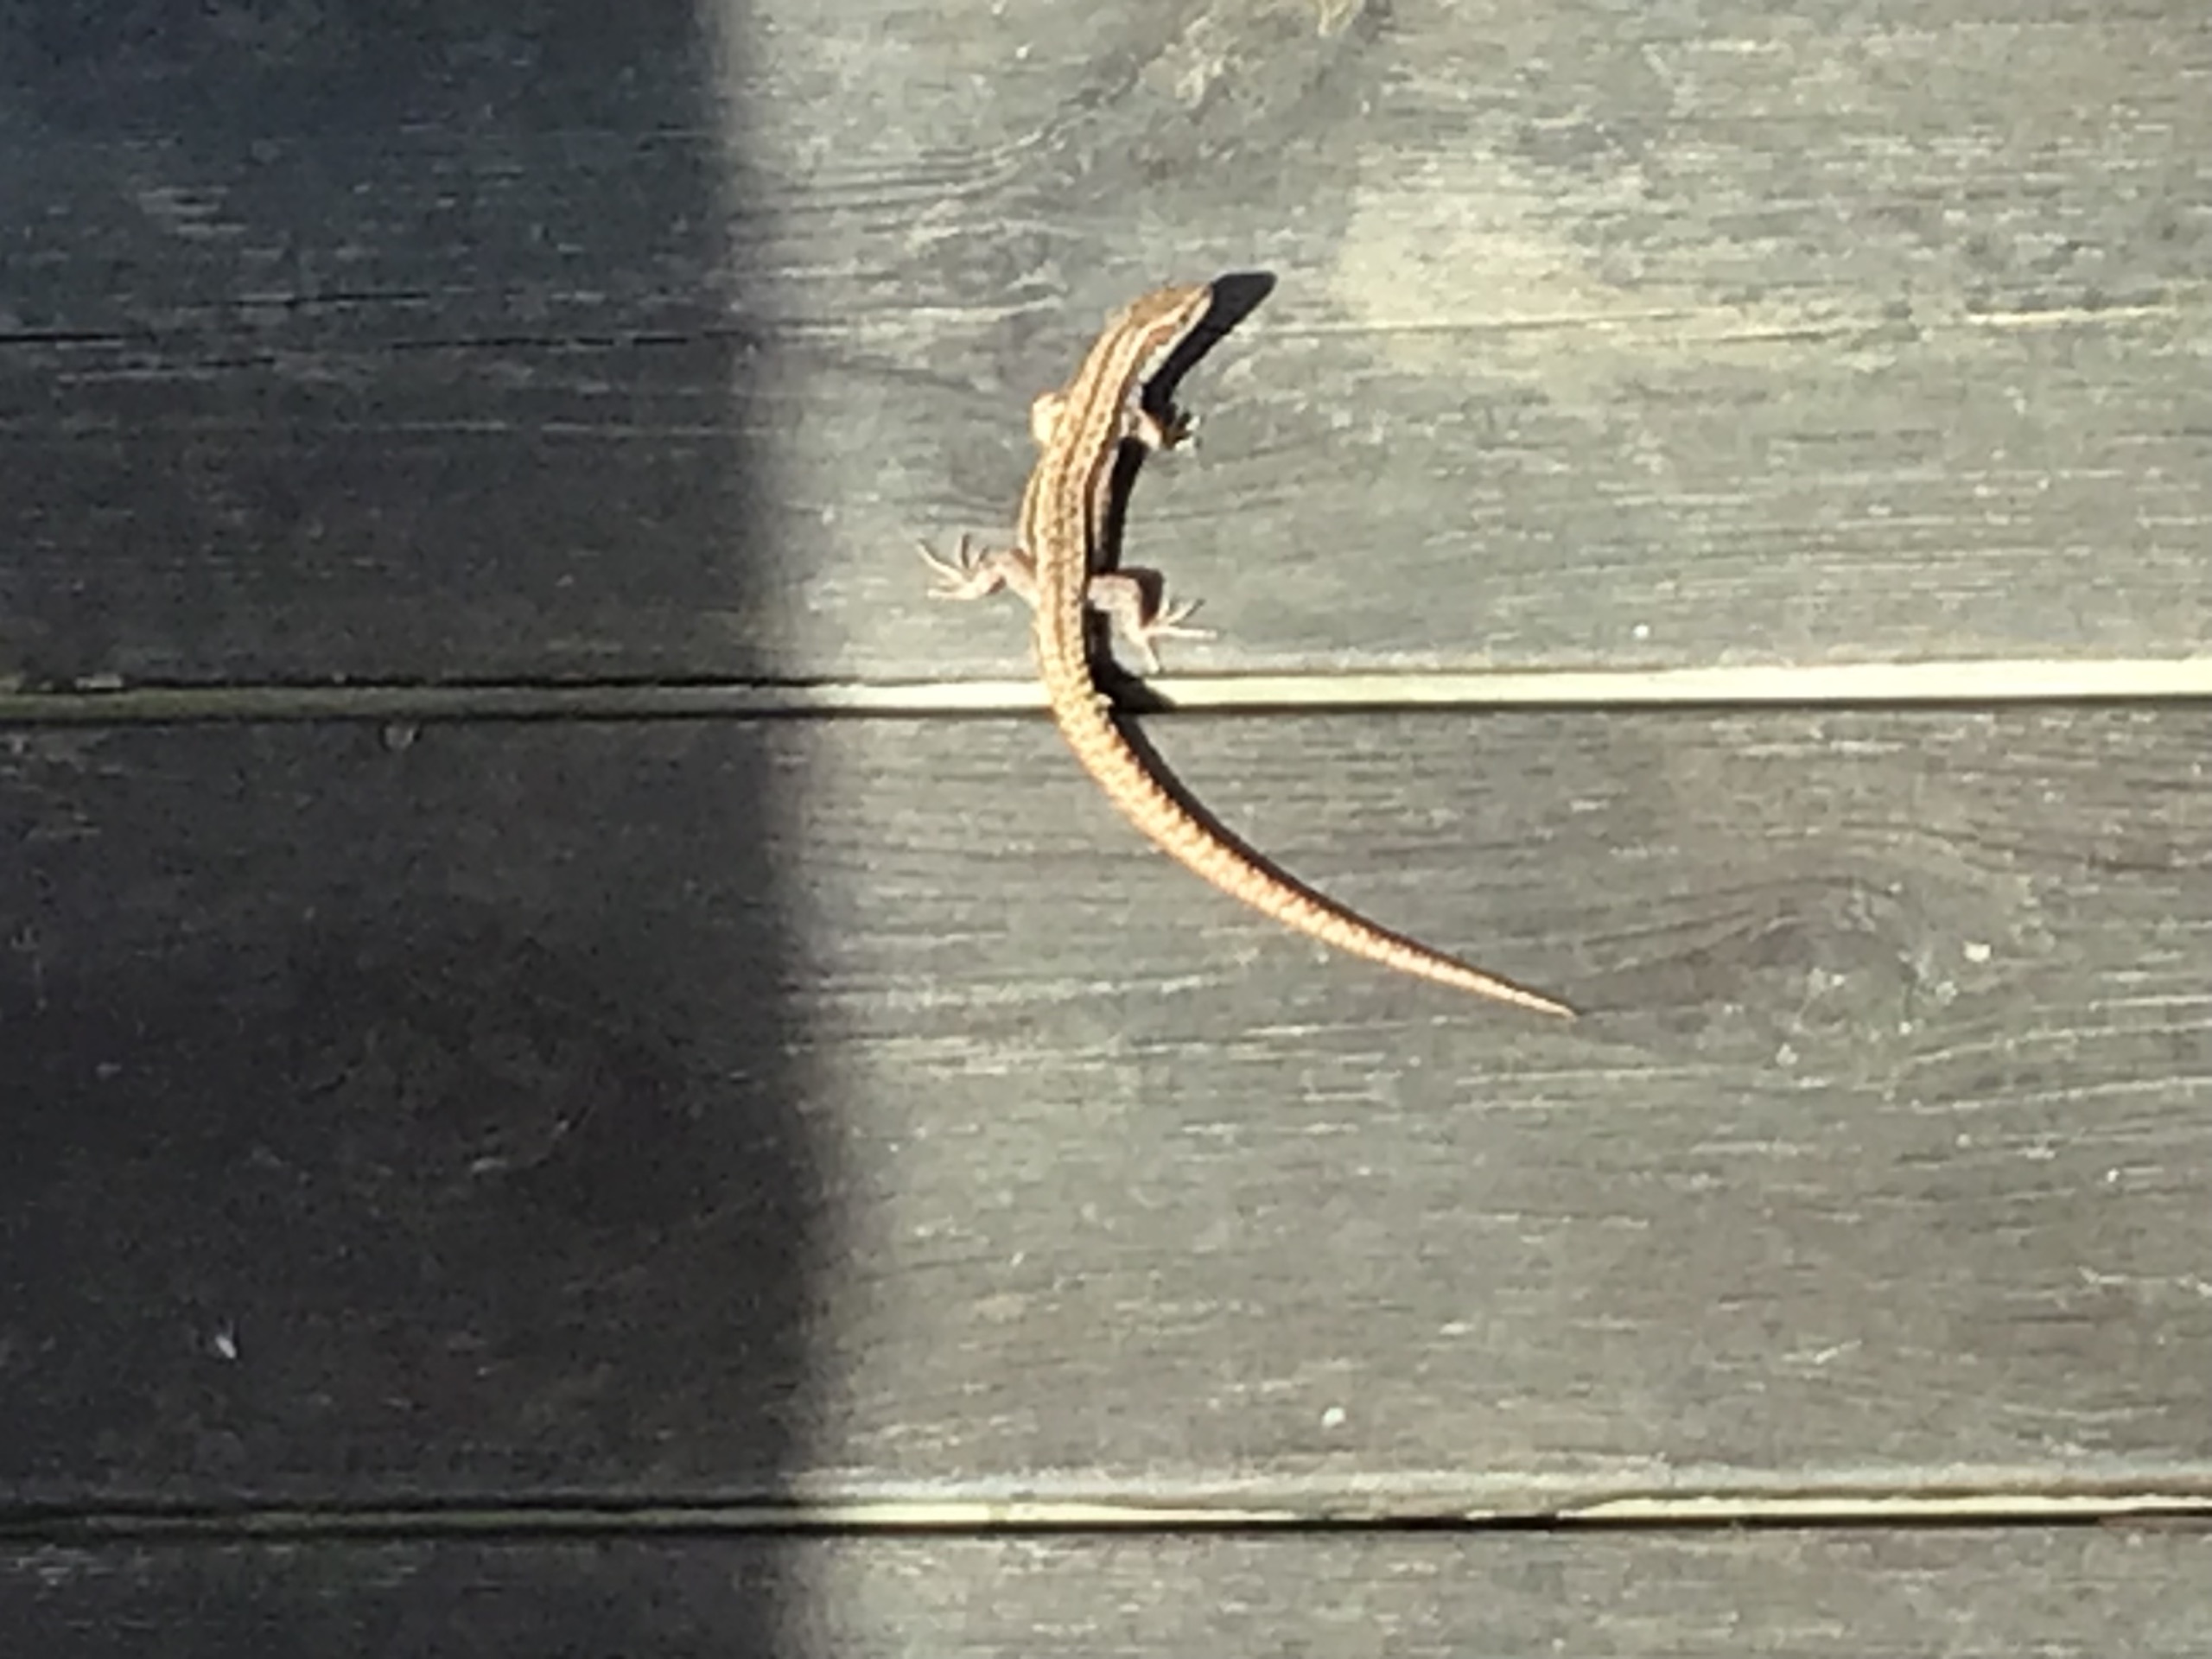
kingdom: Animalia
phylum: Chordata
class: Squamata
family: Lacertidae
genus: Zootoca
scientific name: Zootoca vivipara
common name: Skovfirben
